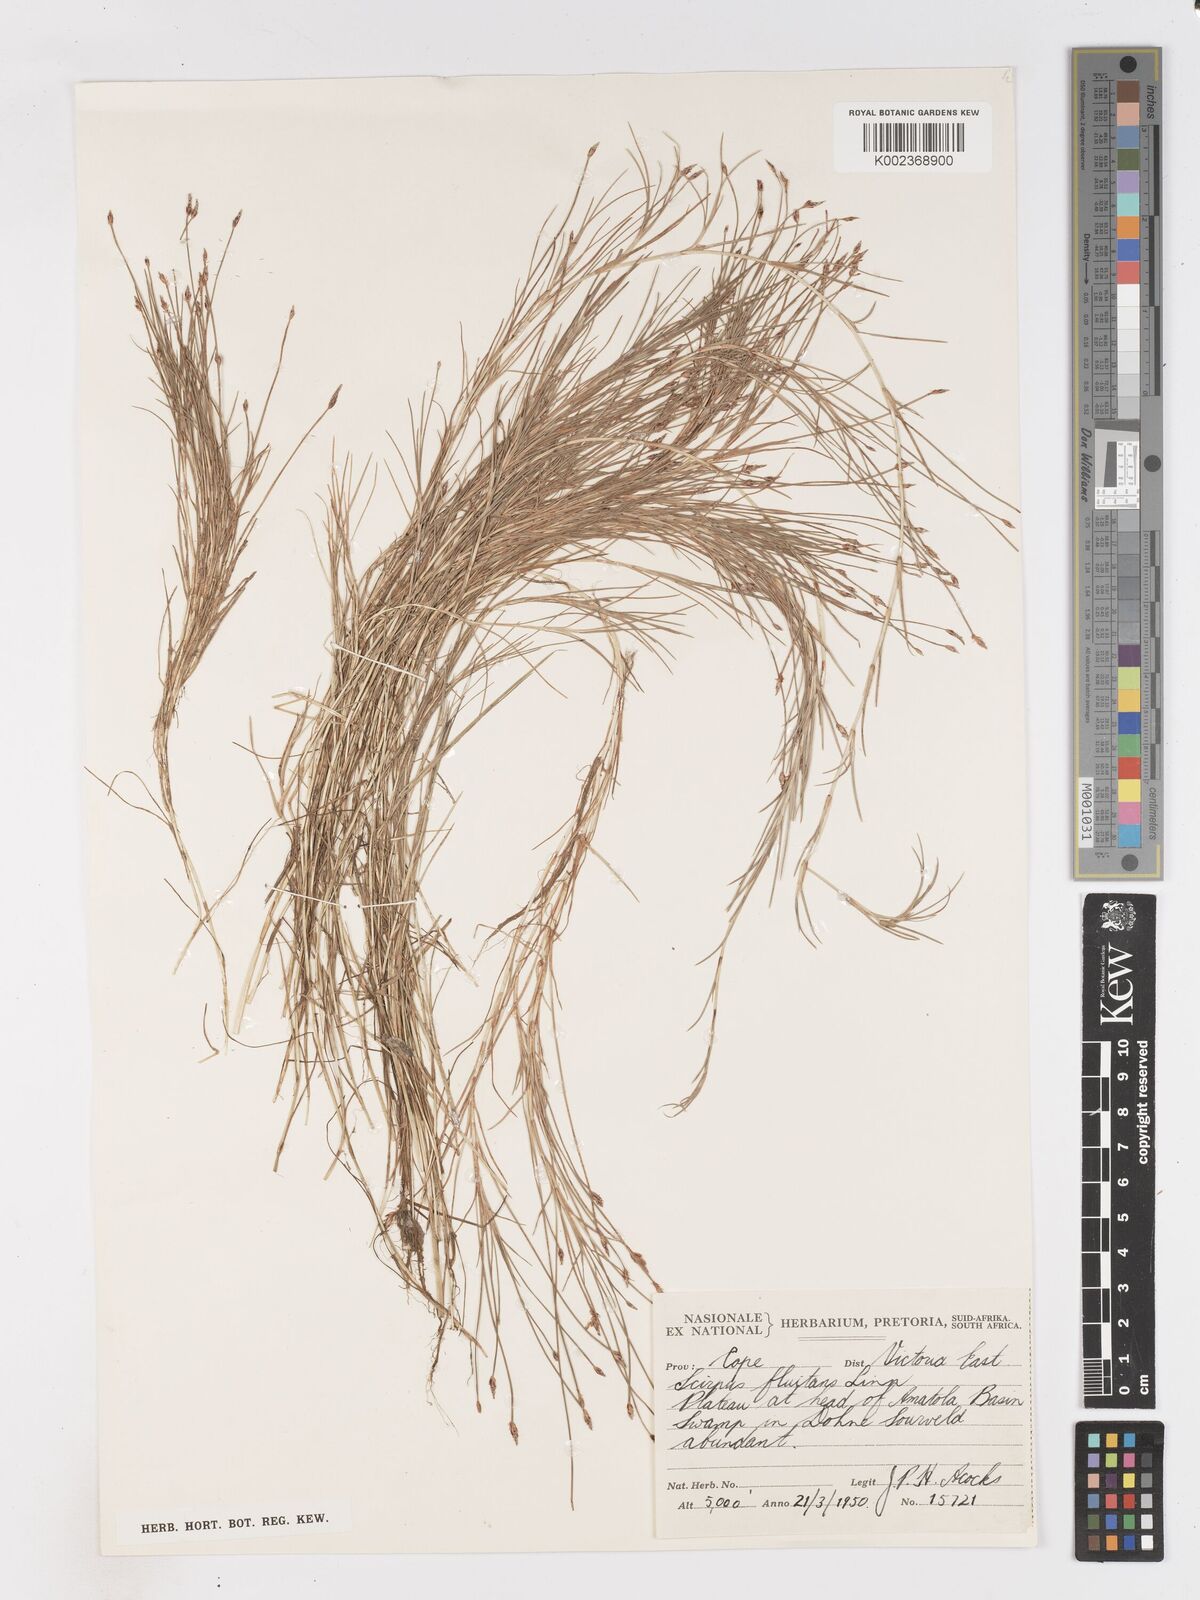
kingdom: Plantae
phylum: Tracheophyta
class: Liliopsida
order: Poales
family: Cyperaceae
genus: Isolepis
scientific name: Isolepis fluitans
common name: Floating club-rush
